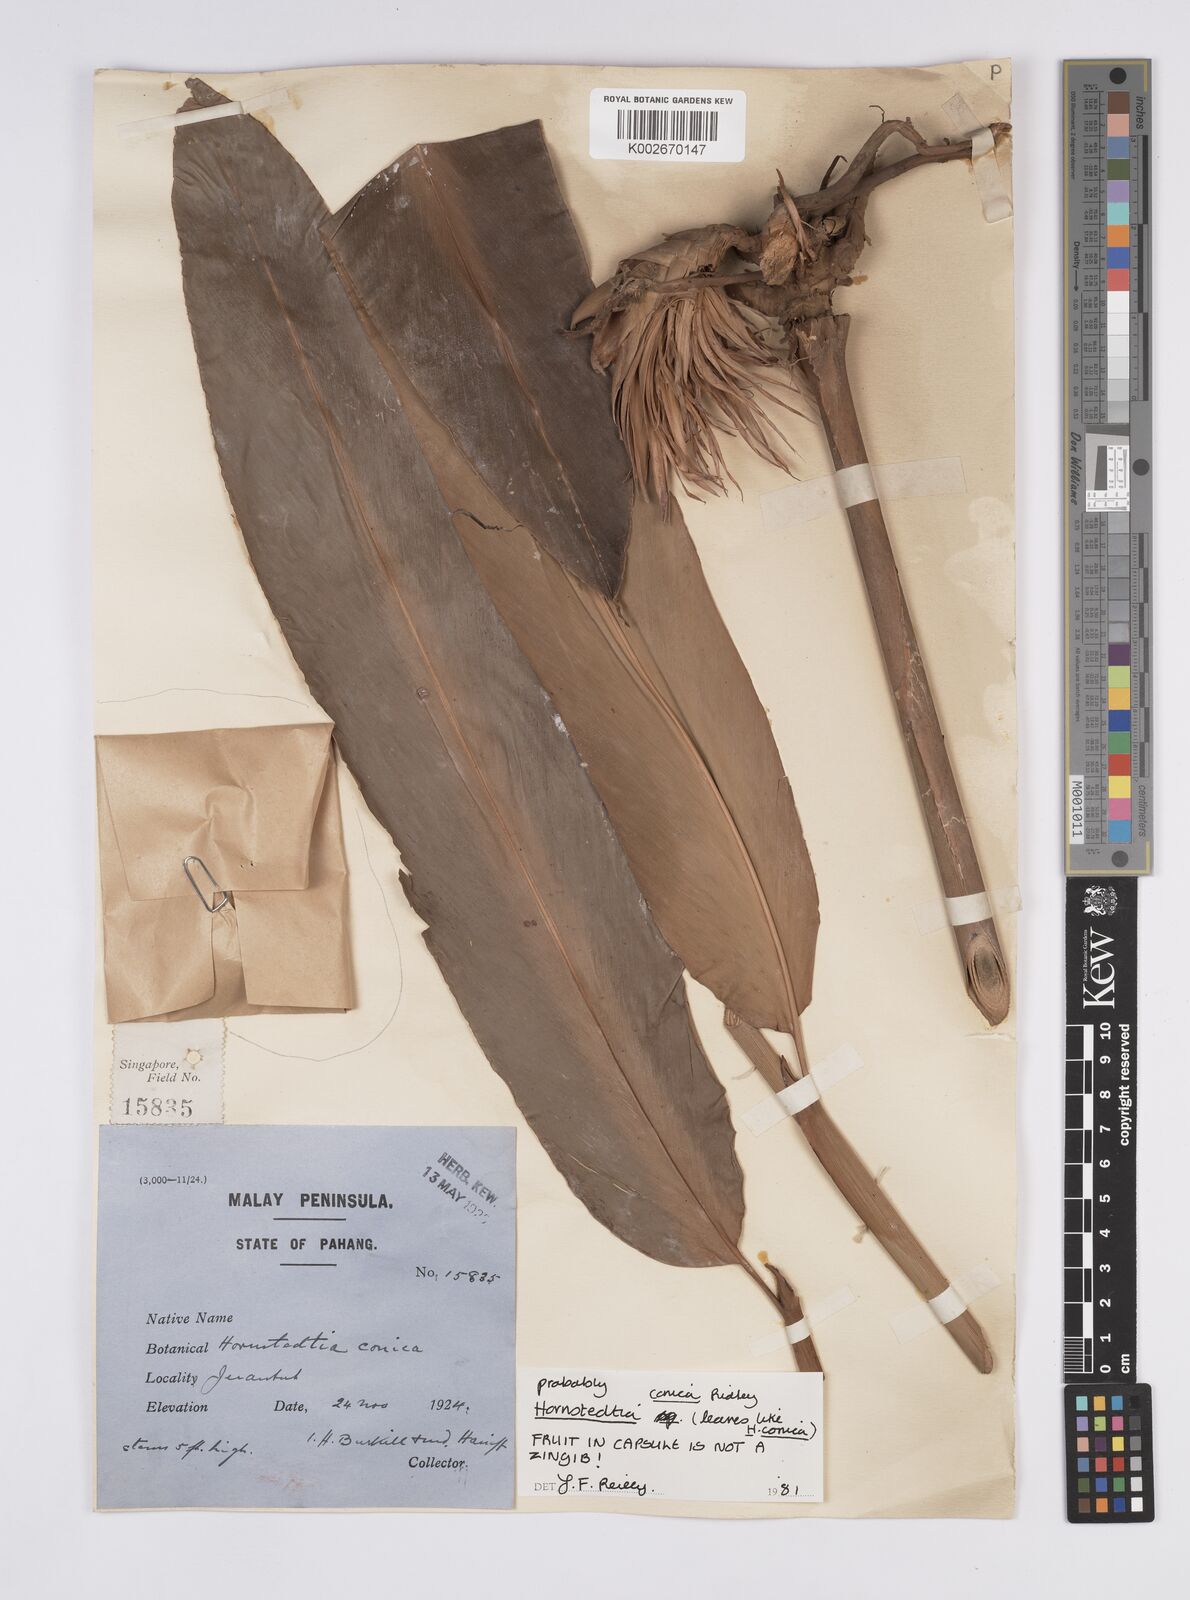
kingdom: Plantae
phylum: Tracheophyta
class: Liliopsida
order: Zingiberales
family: Zingiberaceae
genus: Hornstedtia
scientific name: Hornstedtia conica
